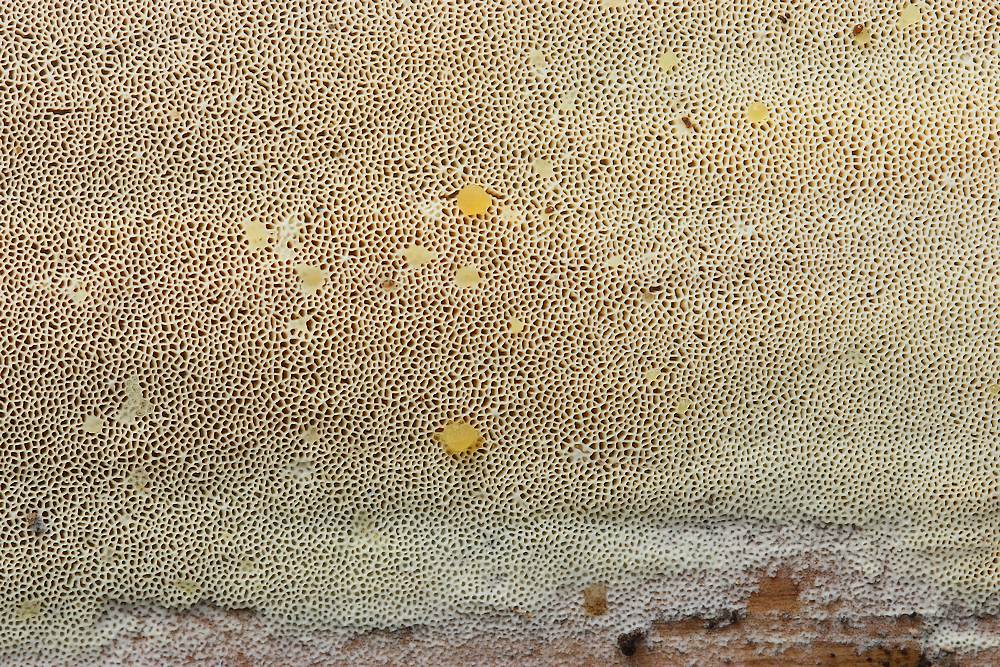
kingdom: Fungi
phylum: Basidiomycota
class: Agaricomycetes
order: Hymenochaetales
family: Rickenellaceae
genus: Sidera
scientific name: Sidera vulgaris
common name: fin flødeporesvamp
